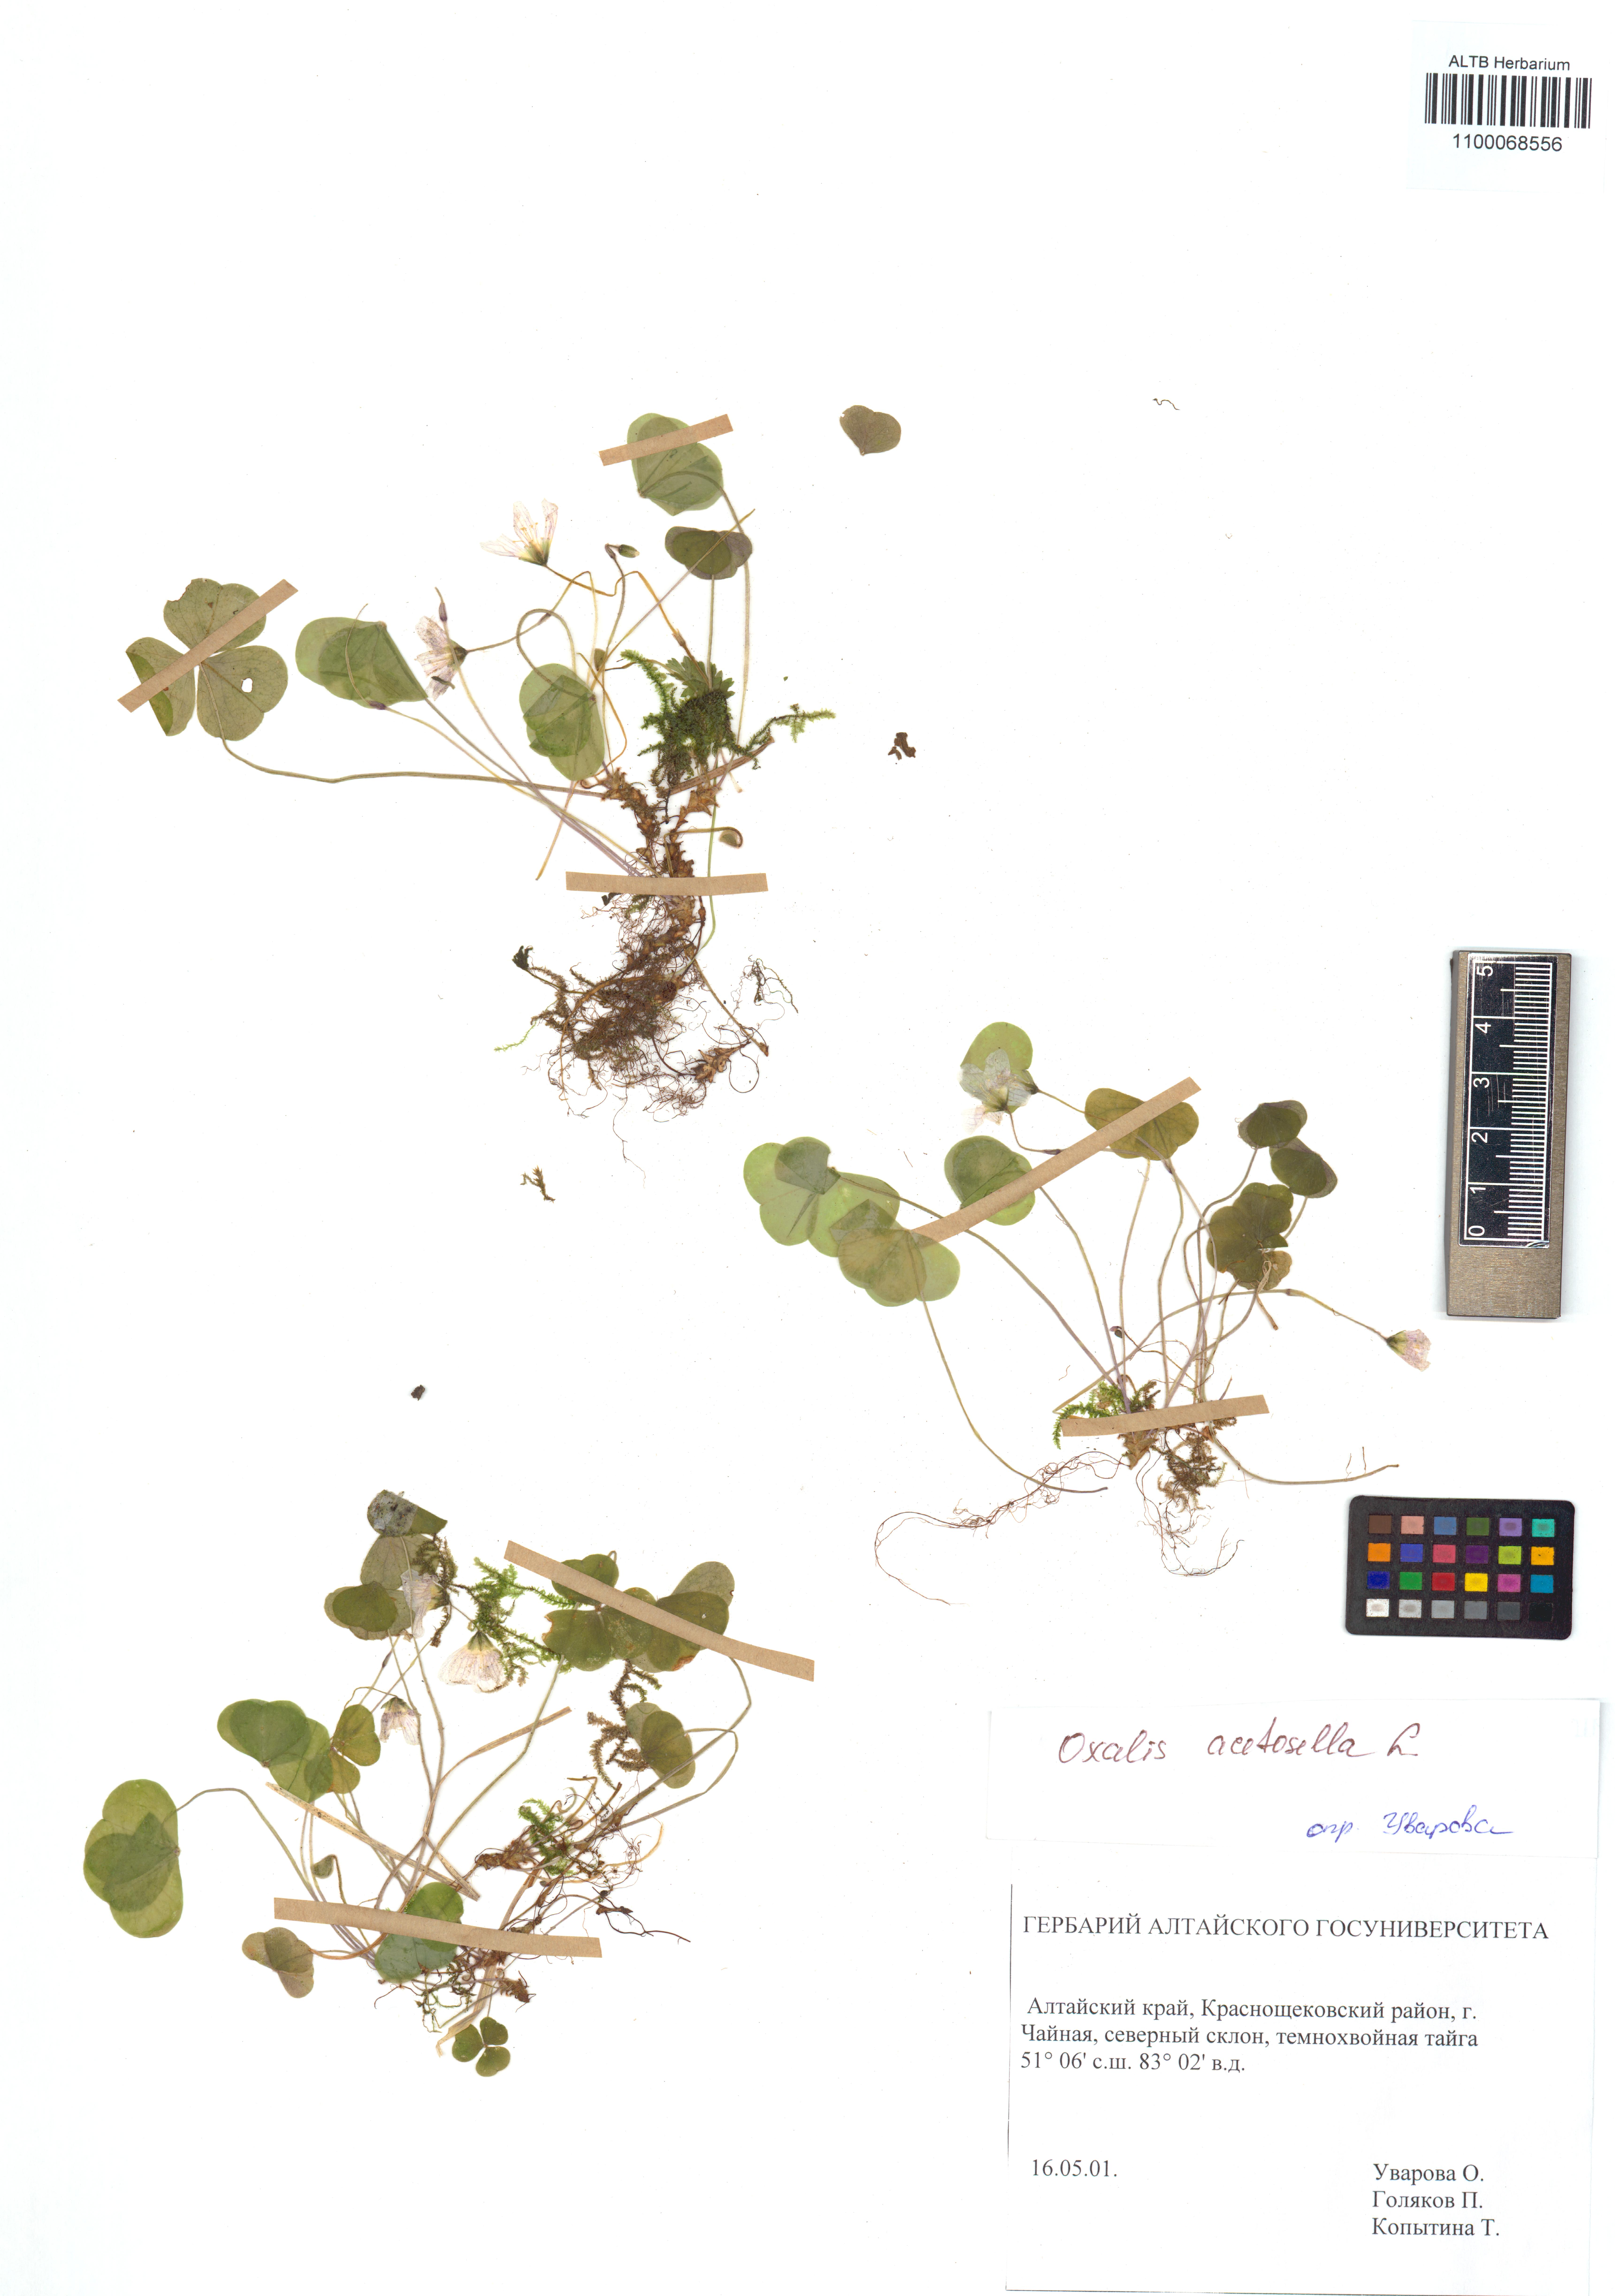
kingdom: Plantae
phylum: Tracheophyta
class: Magnoliopsida
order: Oxalidales
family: Oxalidaceae
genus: Oxalis
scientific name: Oxalis acetosella
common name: Wood-sorrel
